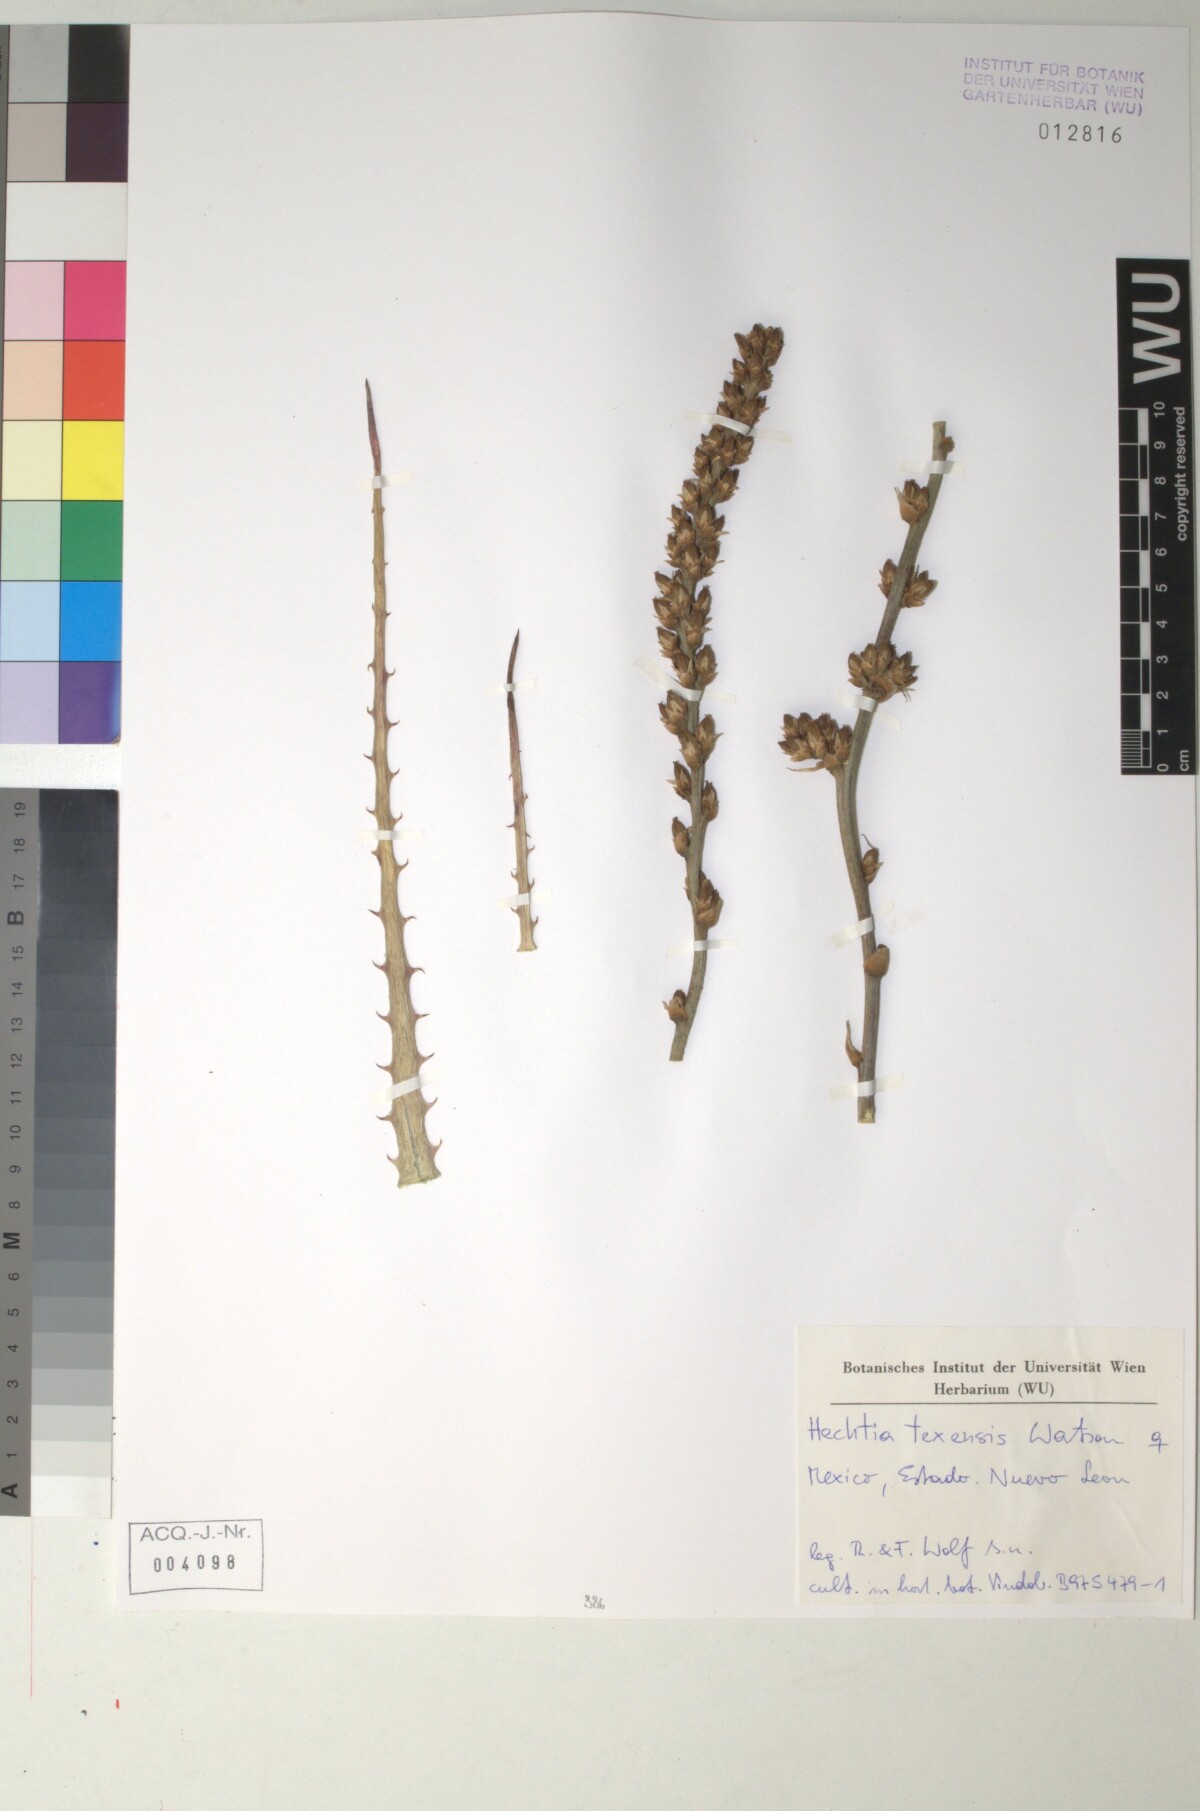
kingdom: Plantae
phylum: Tracheophyta
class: Liliopsida
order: Poales
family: Bromeliaceae
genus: Hechtia
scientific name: Hechtia melanocarpa
